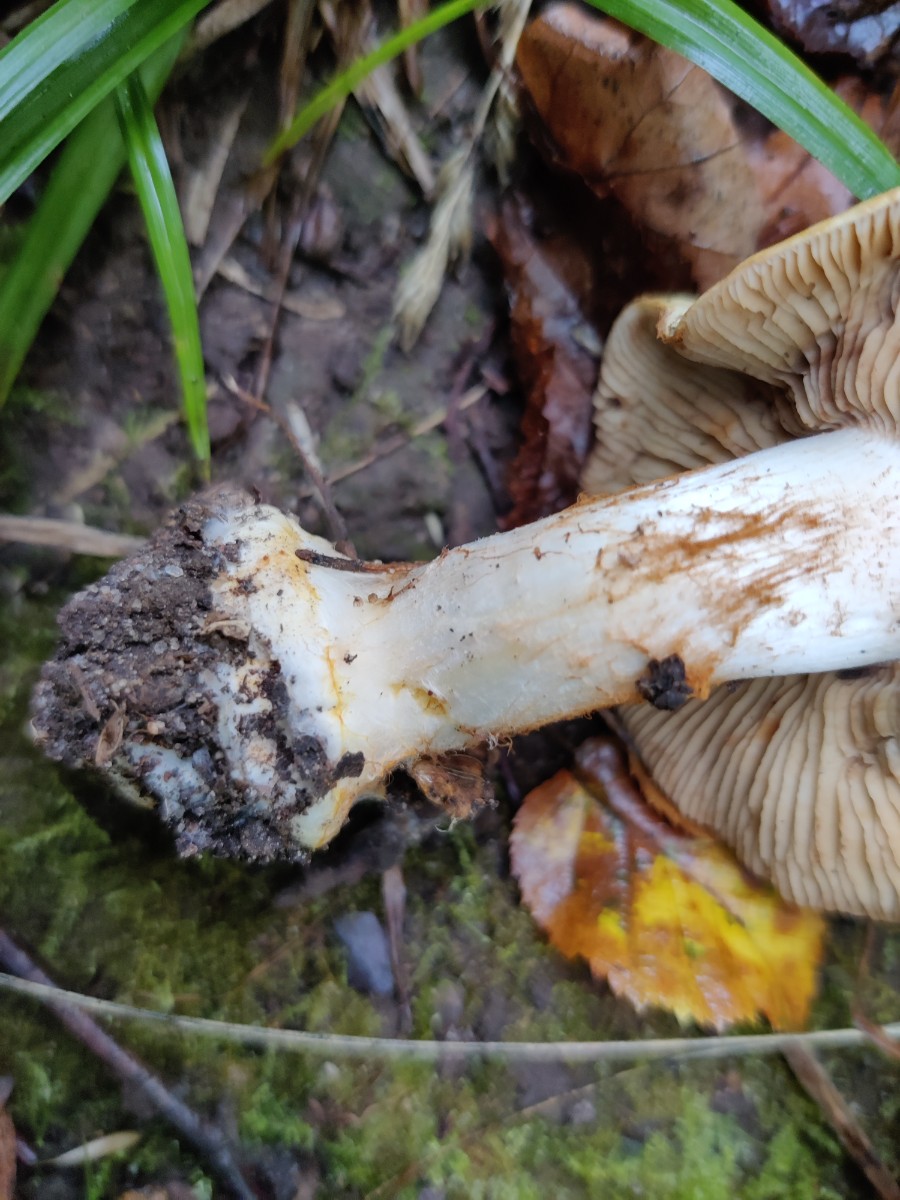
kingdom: Fungi
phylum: Basidiomycota
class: Agaricomycetes
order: Agaricales
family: Cortinariaceae
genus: Phlegmacium
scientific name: Phlegmacium rhizophorum
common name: finkornet slørhat
